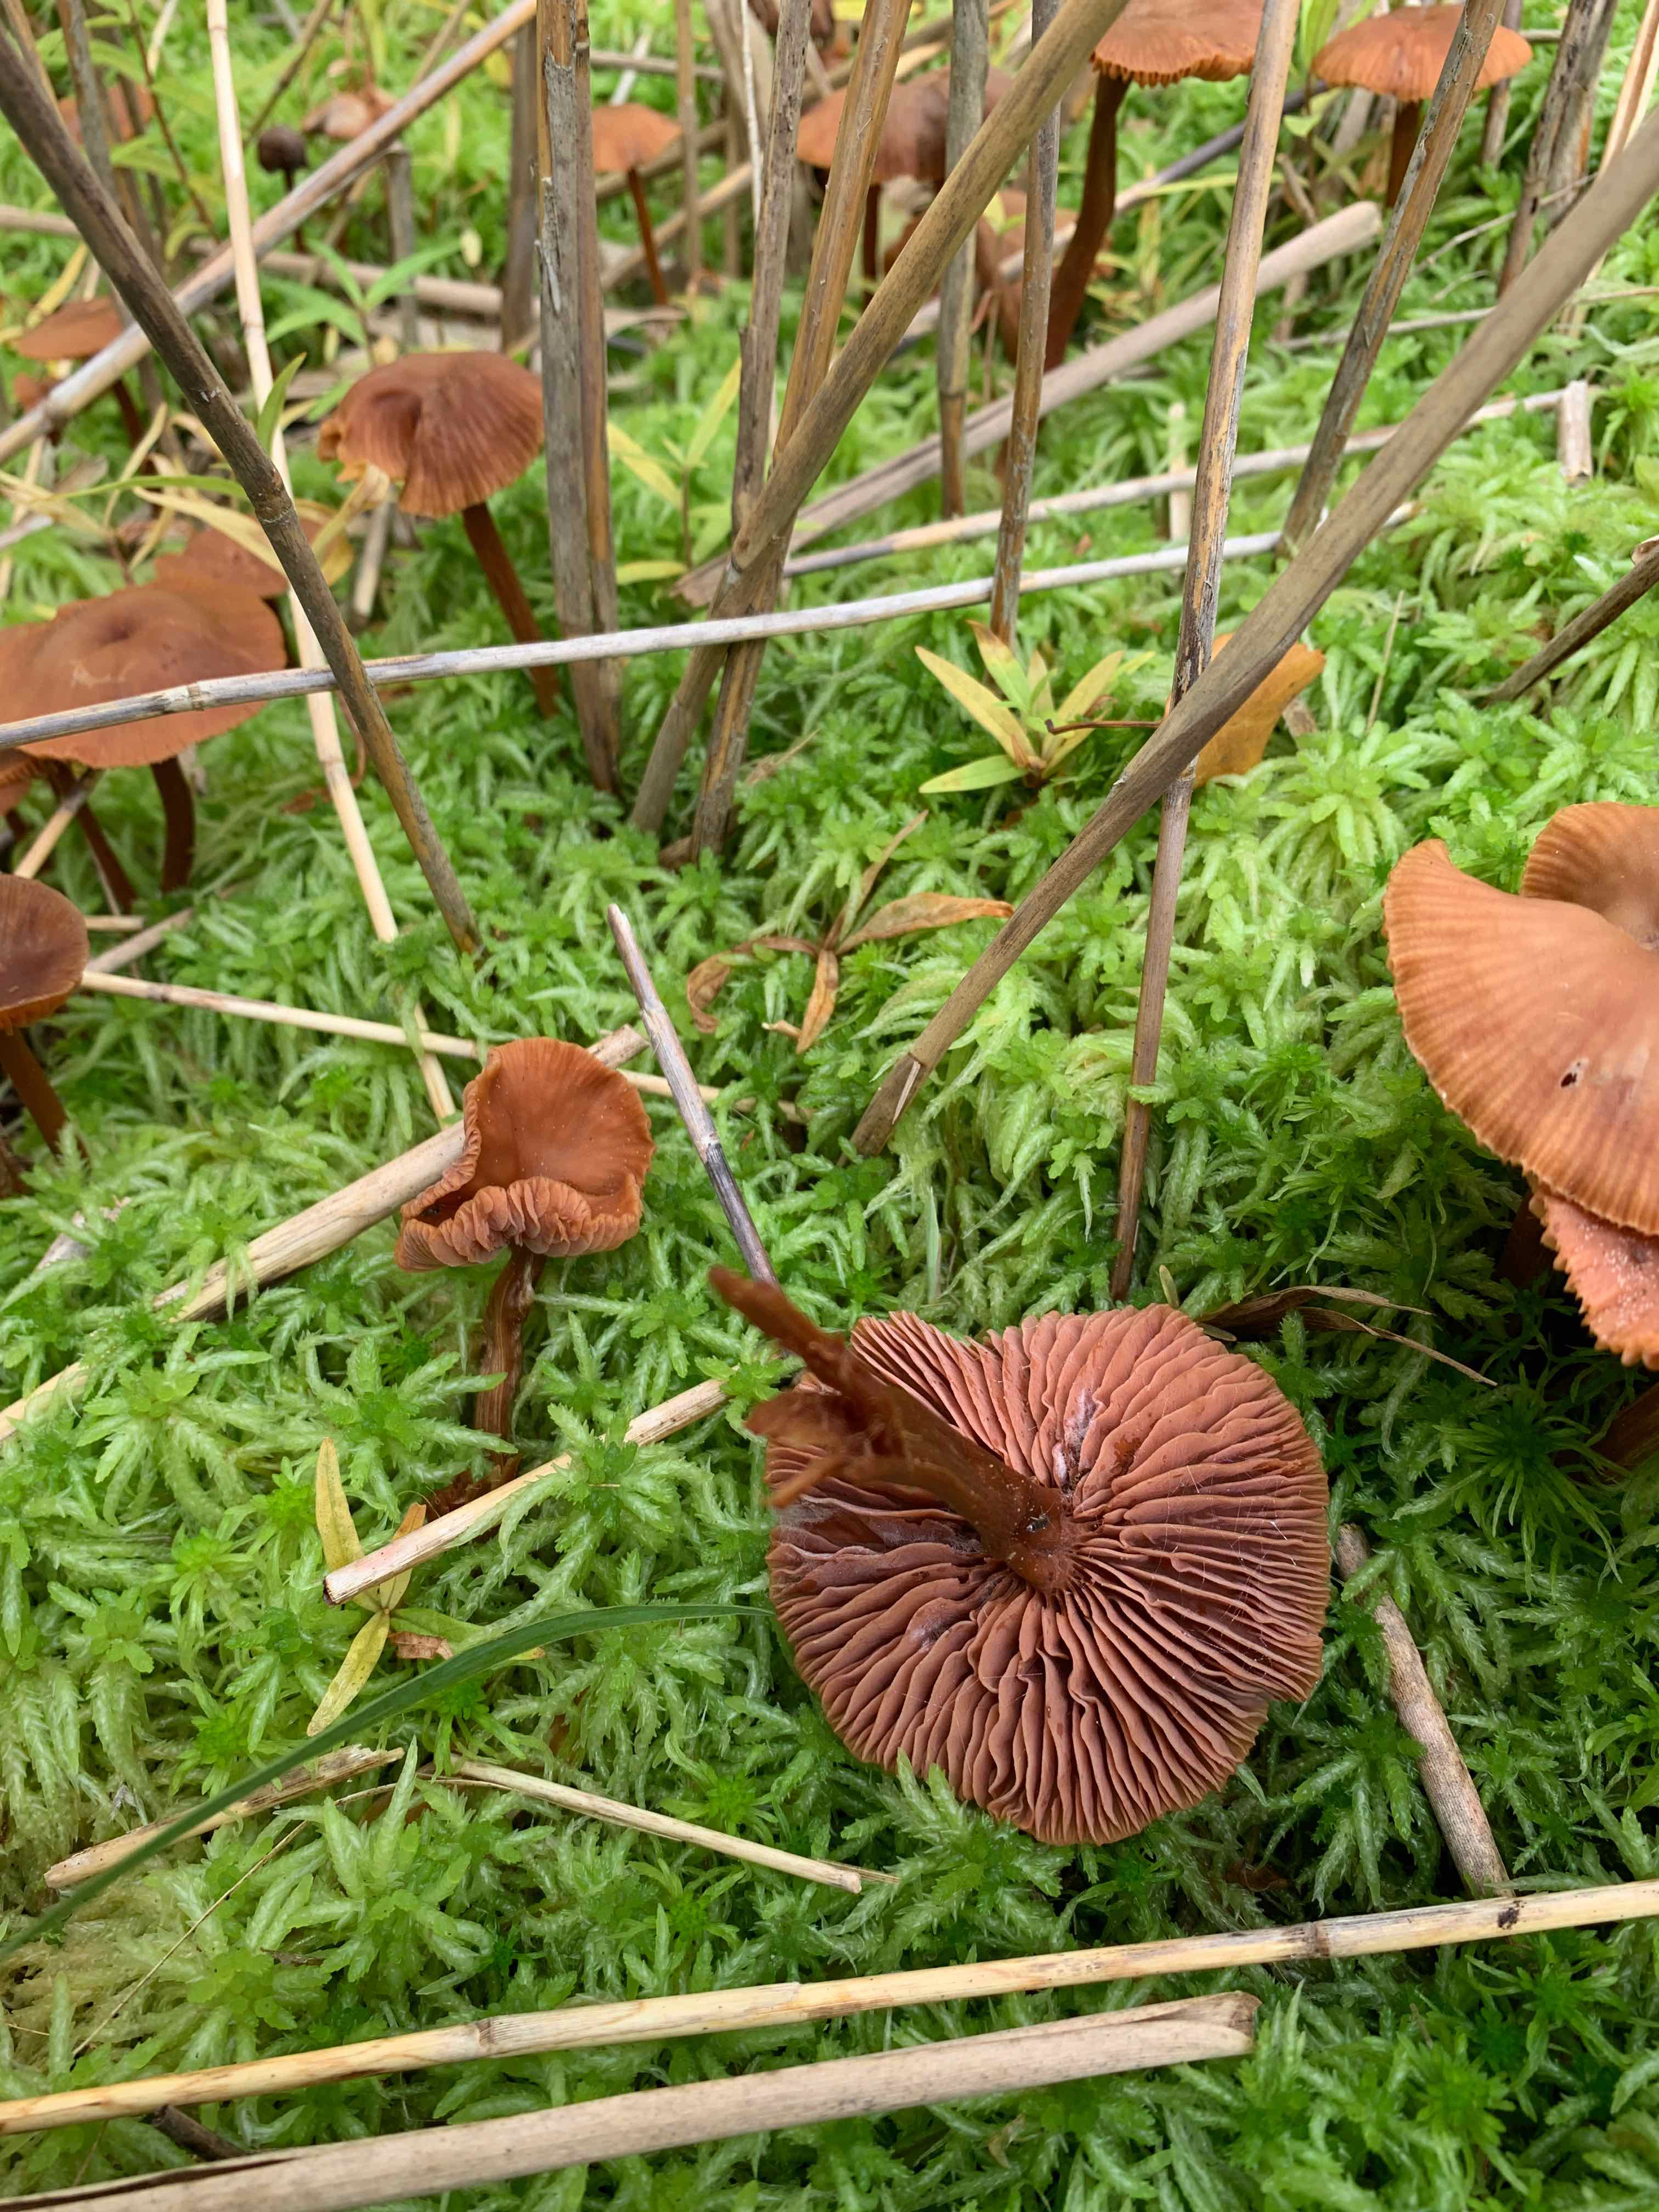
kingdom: Fungi
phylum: Basidiomycota
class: Agaricomycetes
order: Agaricales
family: Hydnangiaceae
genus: Laccaria
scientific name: Laccaria laccata
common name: rød ametysthat
